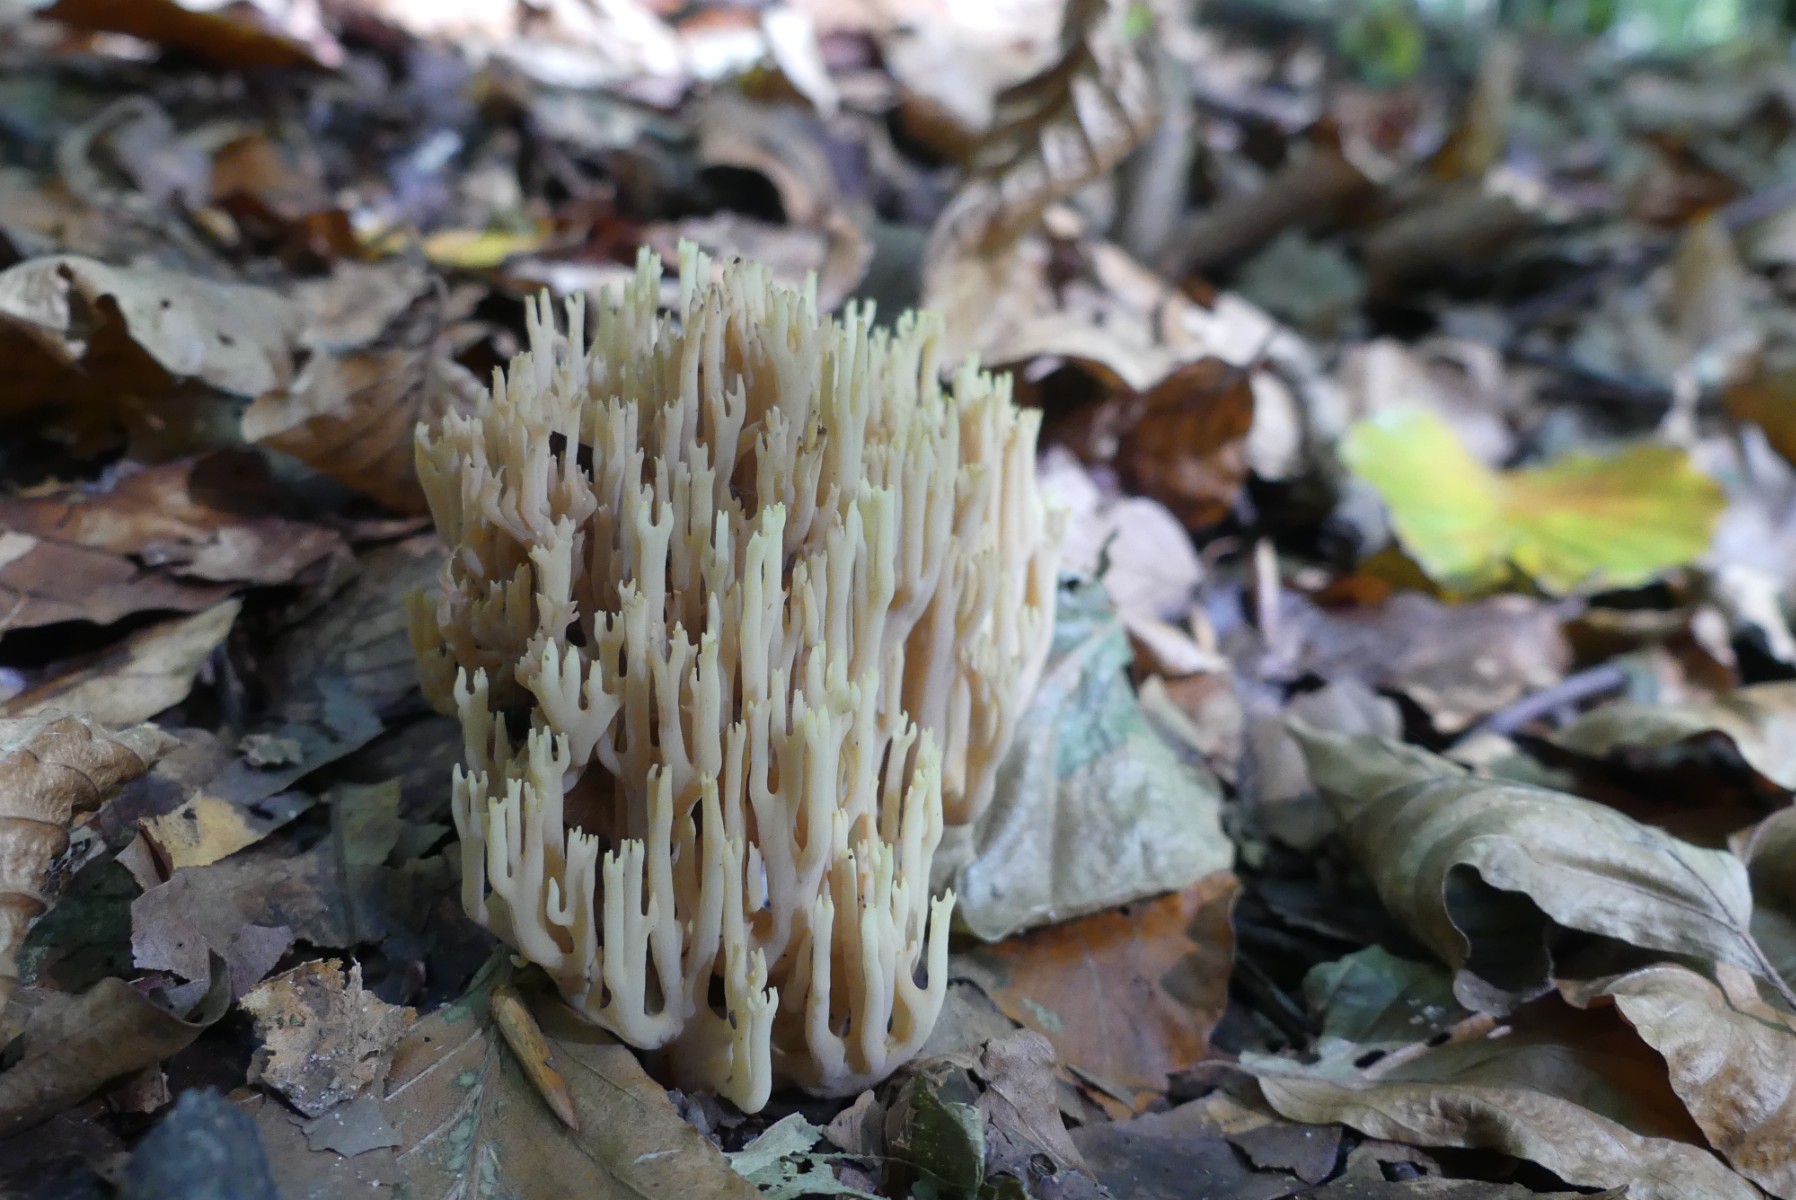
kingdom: Fungi
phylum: Basidiomycota
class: Agaricomycetes
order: Gomphales
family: Gomphaceae
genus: Ramaria
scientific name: Ramaria stricta
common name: rank koralsvamp
